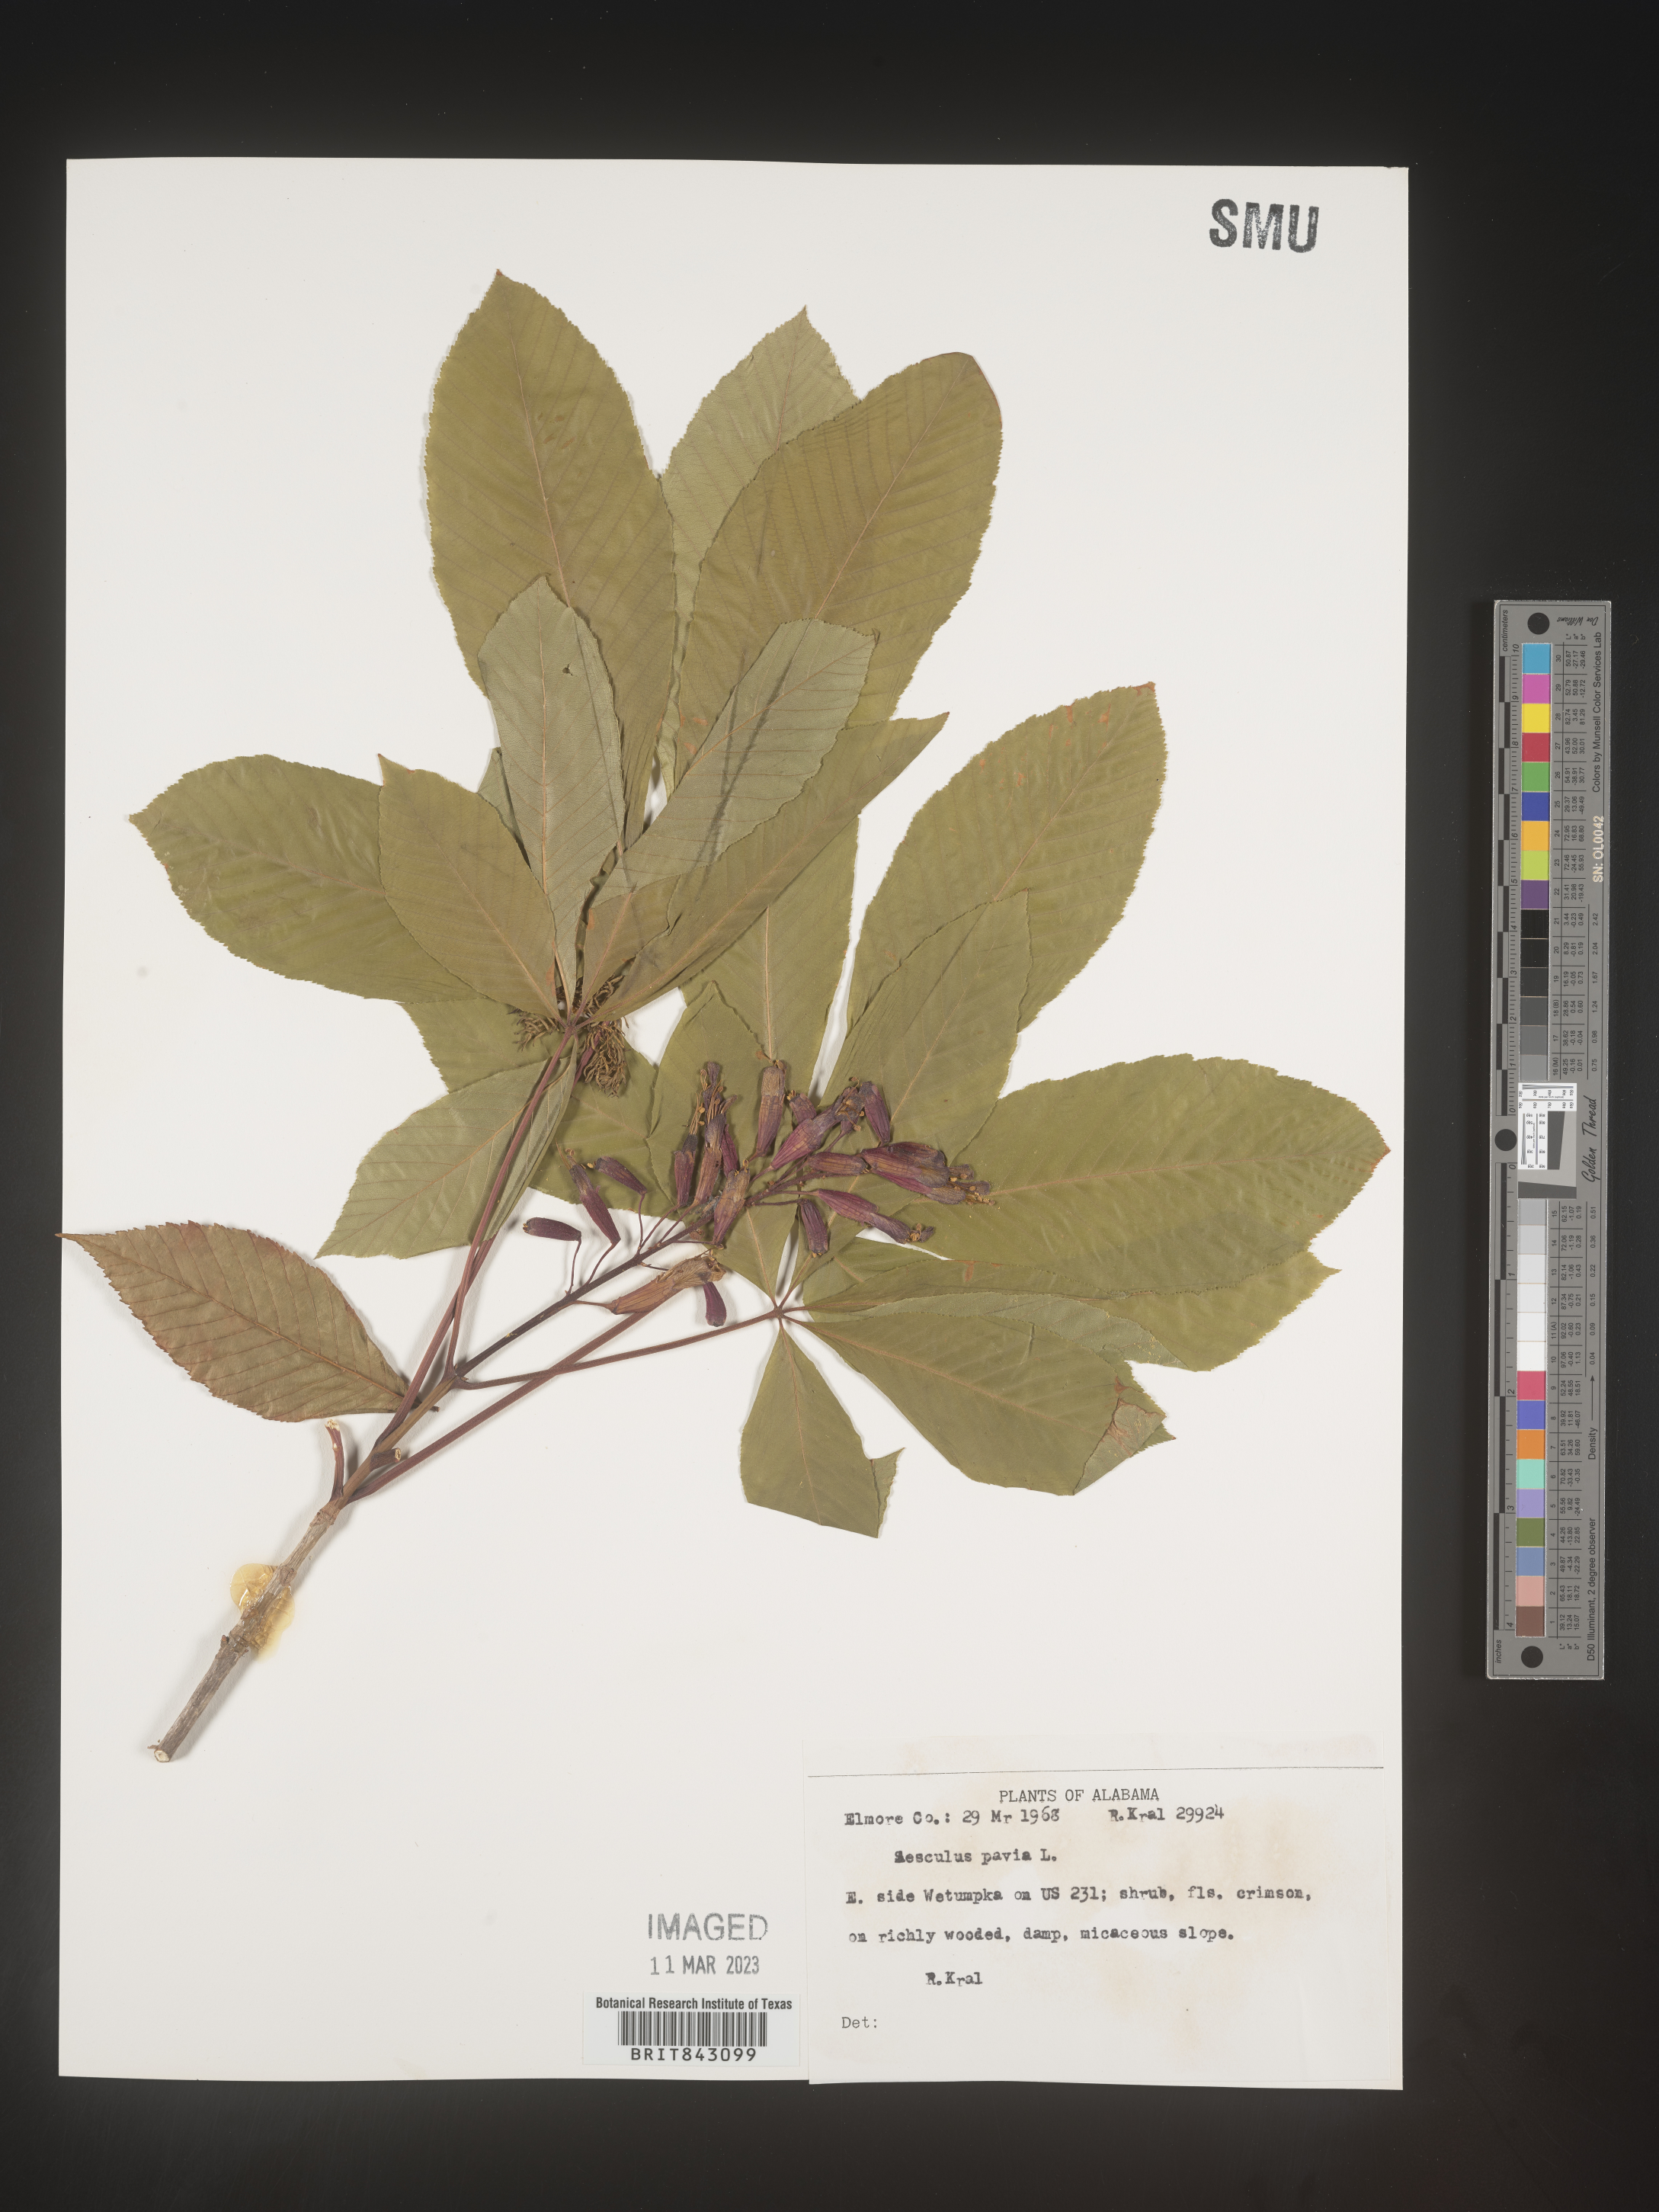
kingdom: Plantae
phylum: Tracheophyta
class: Magnoliopsida
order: Sapindales
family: Sapindaceae
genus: Aesculus
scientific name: Aesculus pavia
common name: Red buckeye
